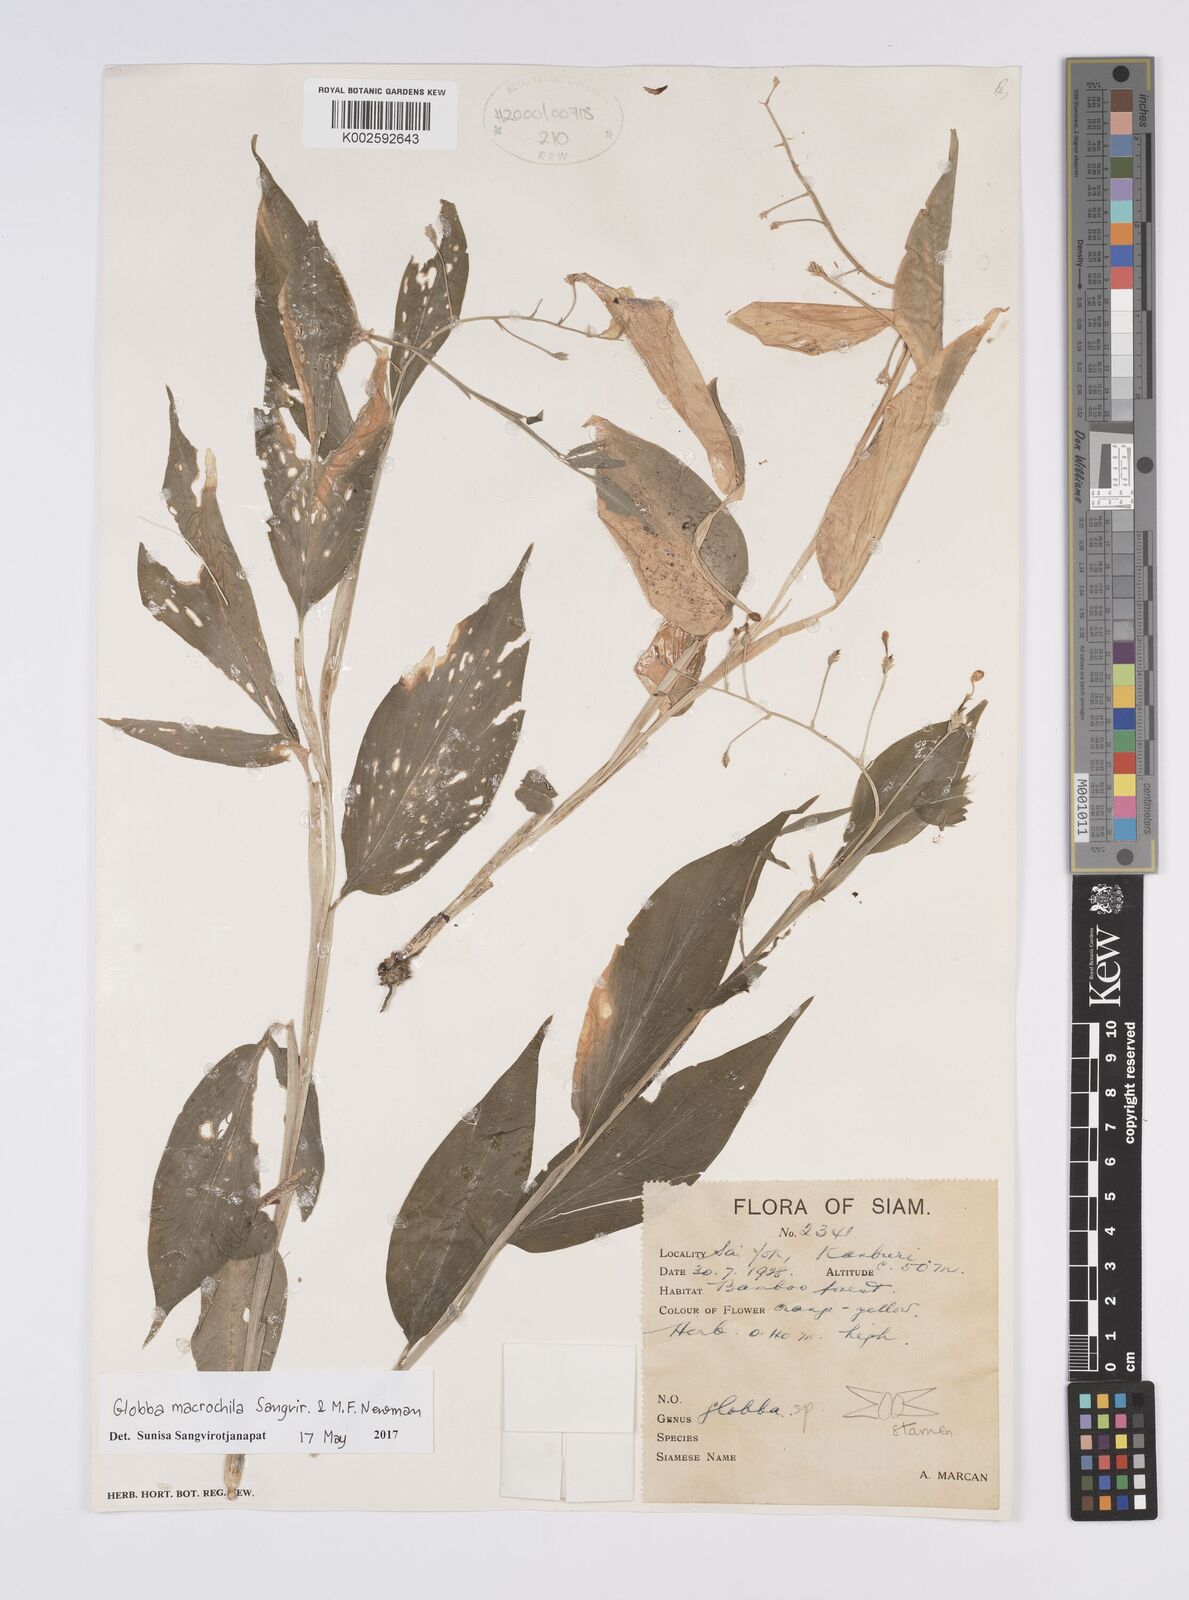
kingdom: Plantae
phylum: Tracheophyta
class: Liliopsida
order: Zingiberales
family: Zingiberaceae
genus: Globba
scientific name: Globba macrochila
